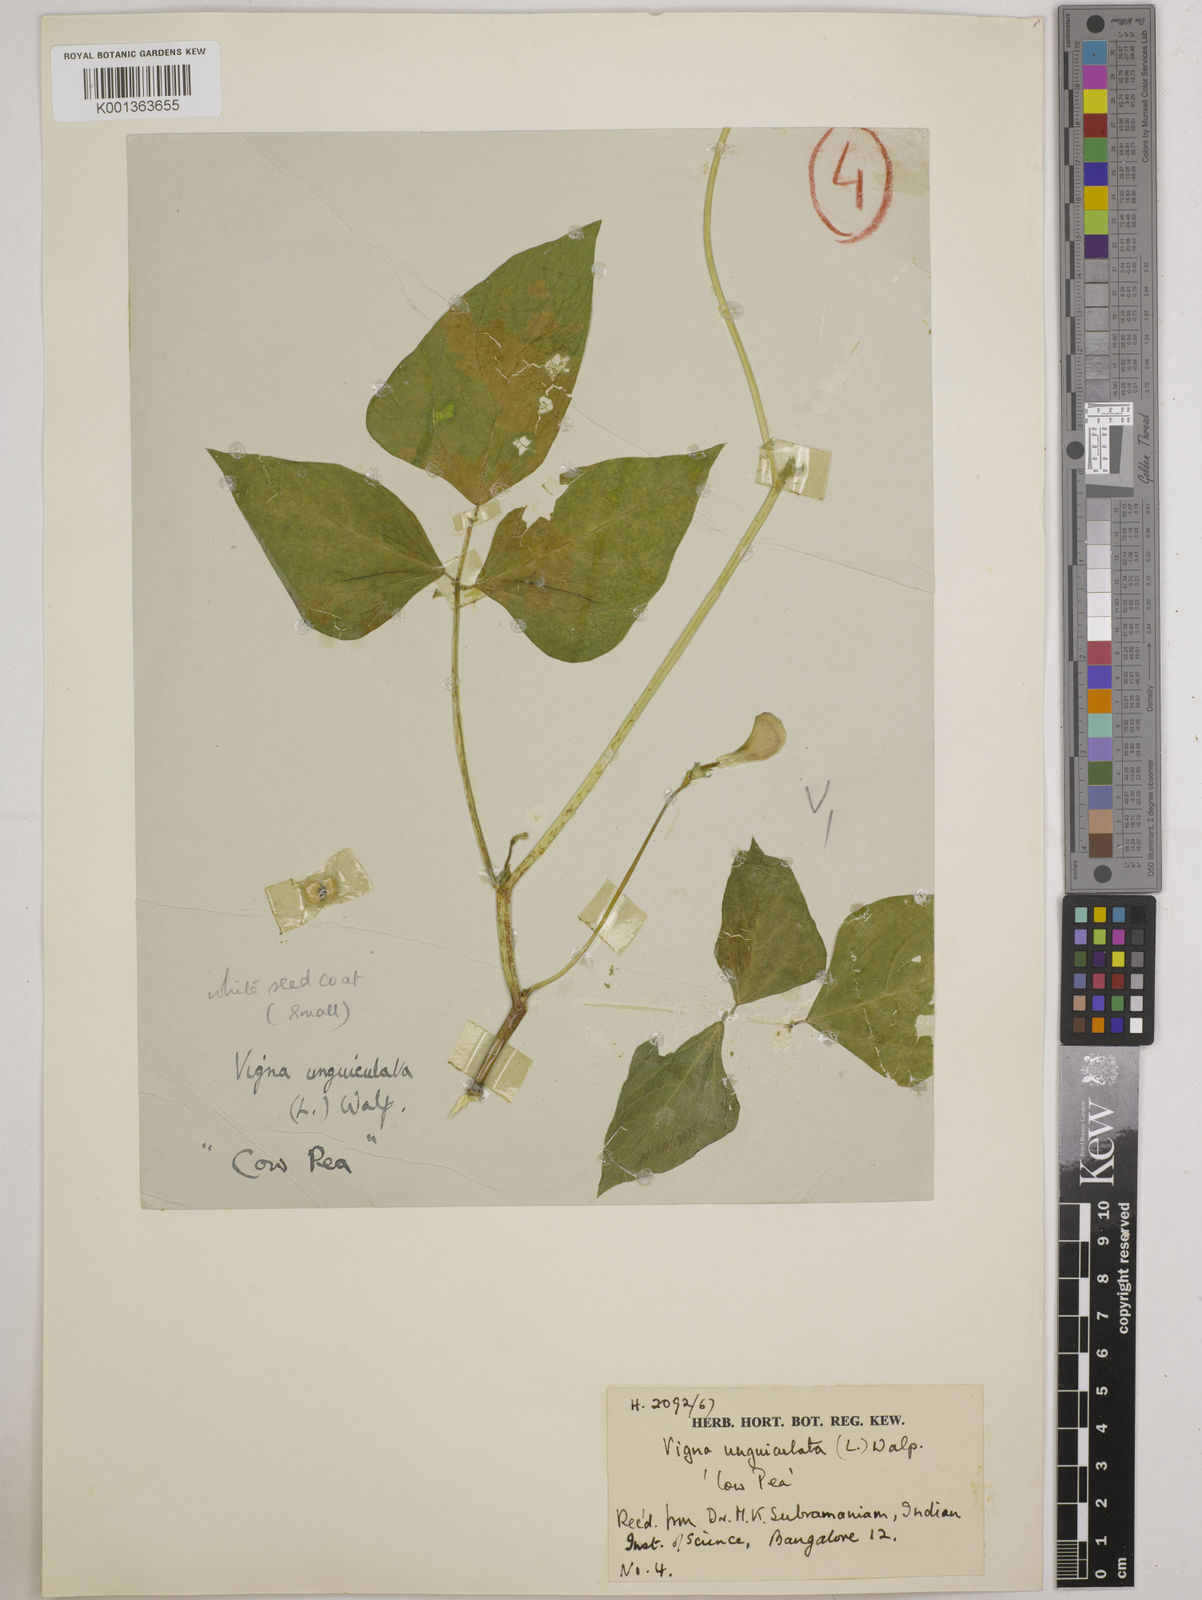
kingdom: Plantae
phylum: Tracheophyta
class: Magnoliopsida
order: Fabales
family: Fabaceae
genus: Vigna
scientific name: Vigna unguiculata
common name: Cowpea
